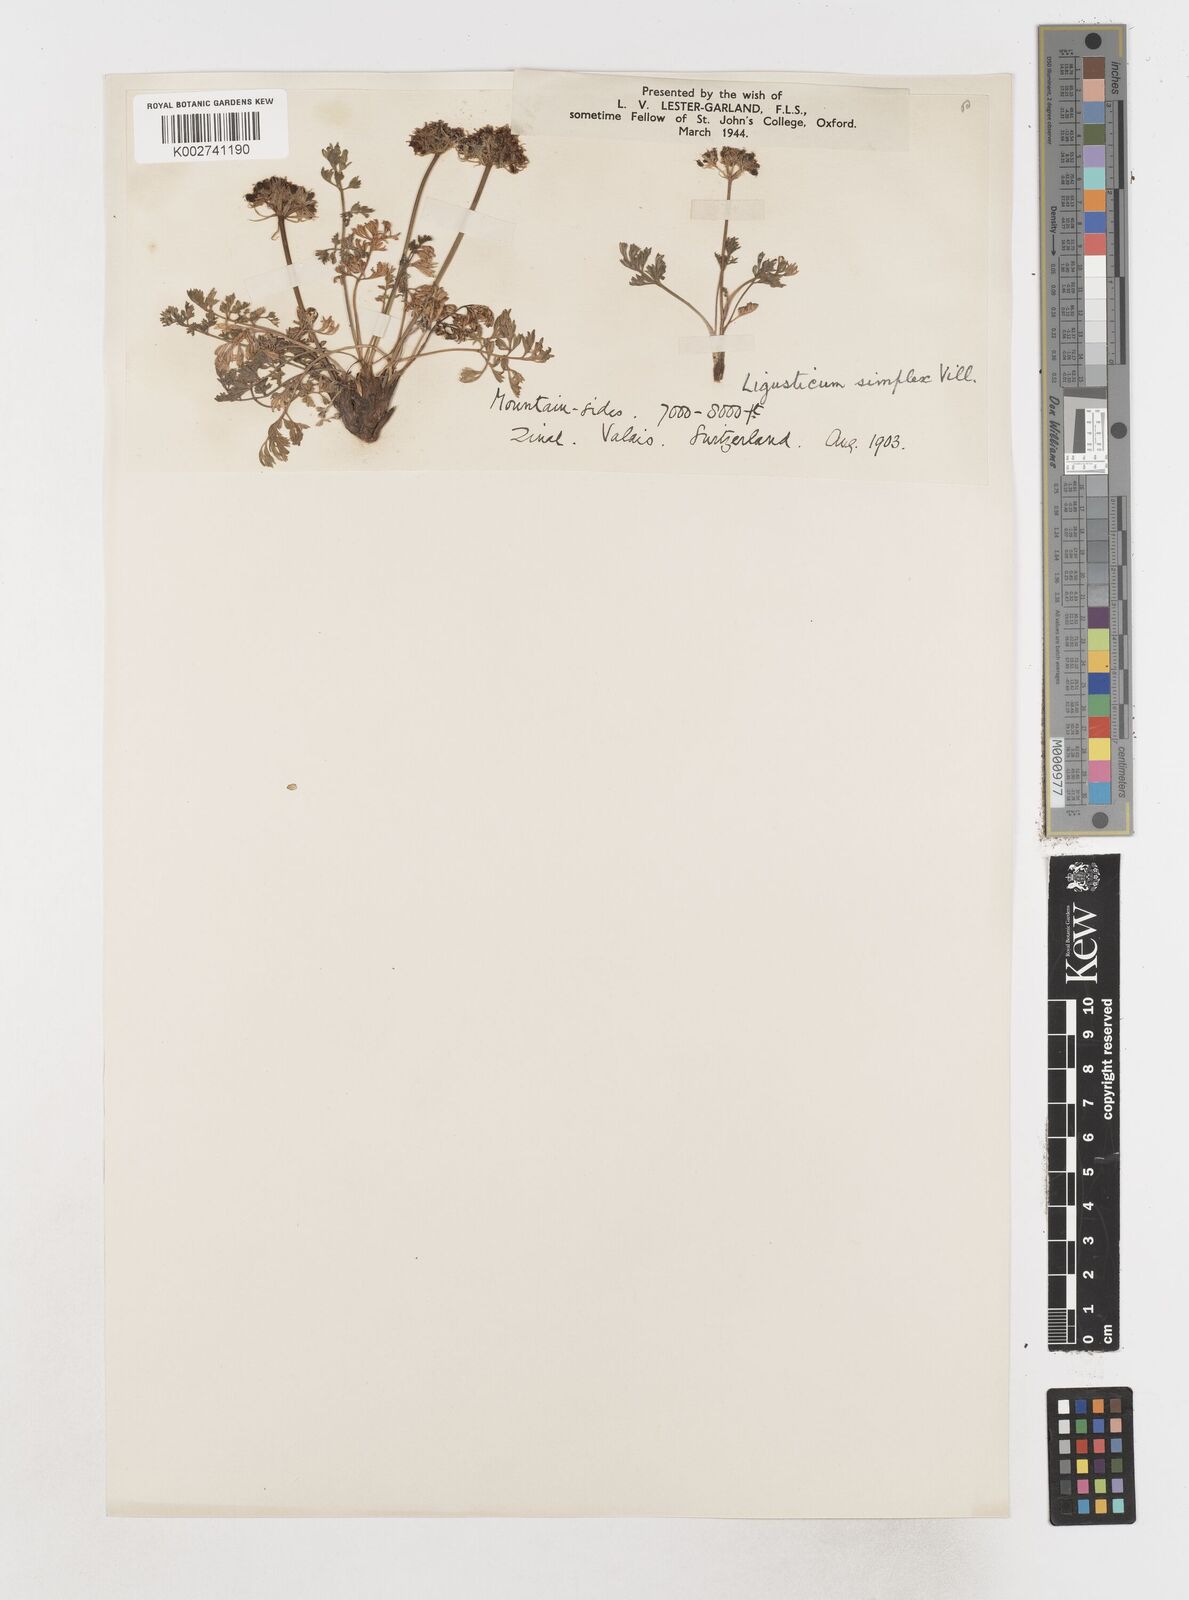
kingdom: Plantae
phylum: Tracheophyta
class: Magnoliopsida
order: Apiales
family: Apiaceae
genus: Pachypleurum
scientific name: Pachypleurum mutellinoides
